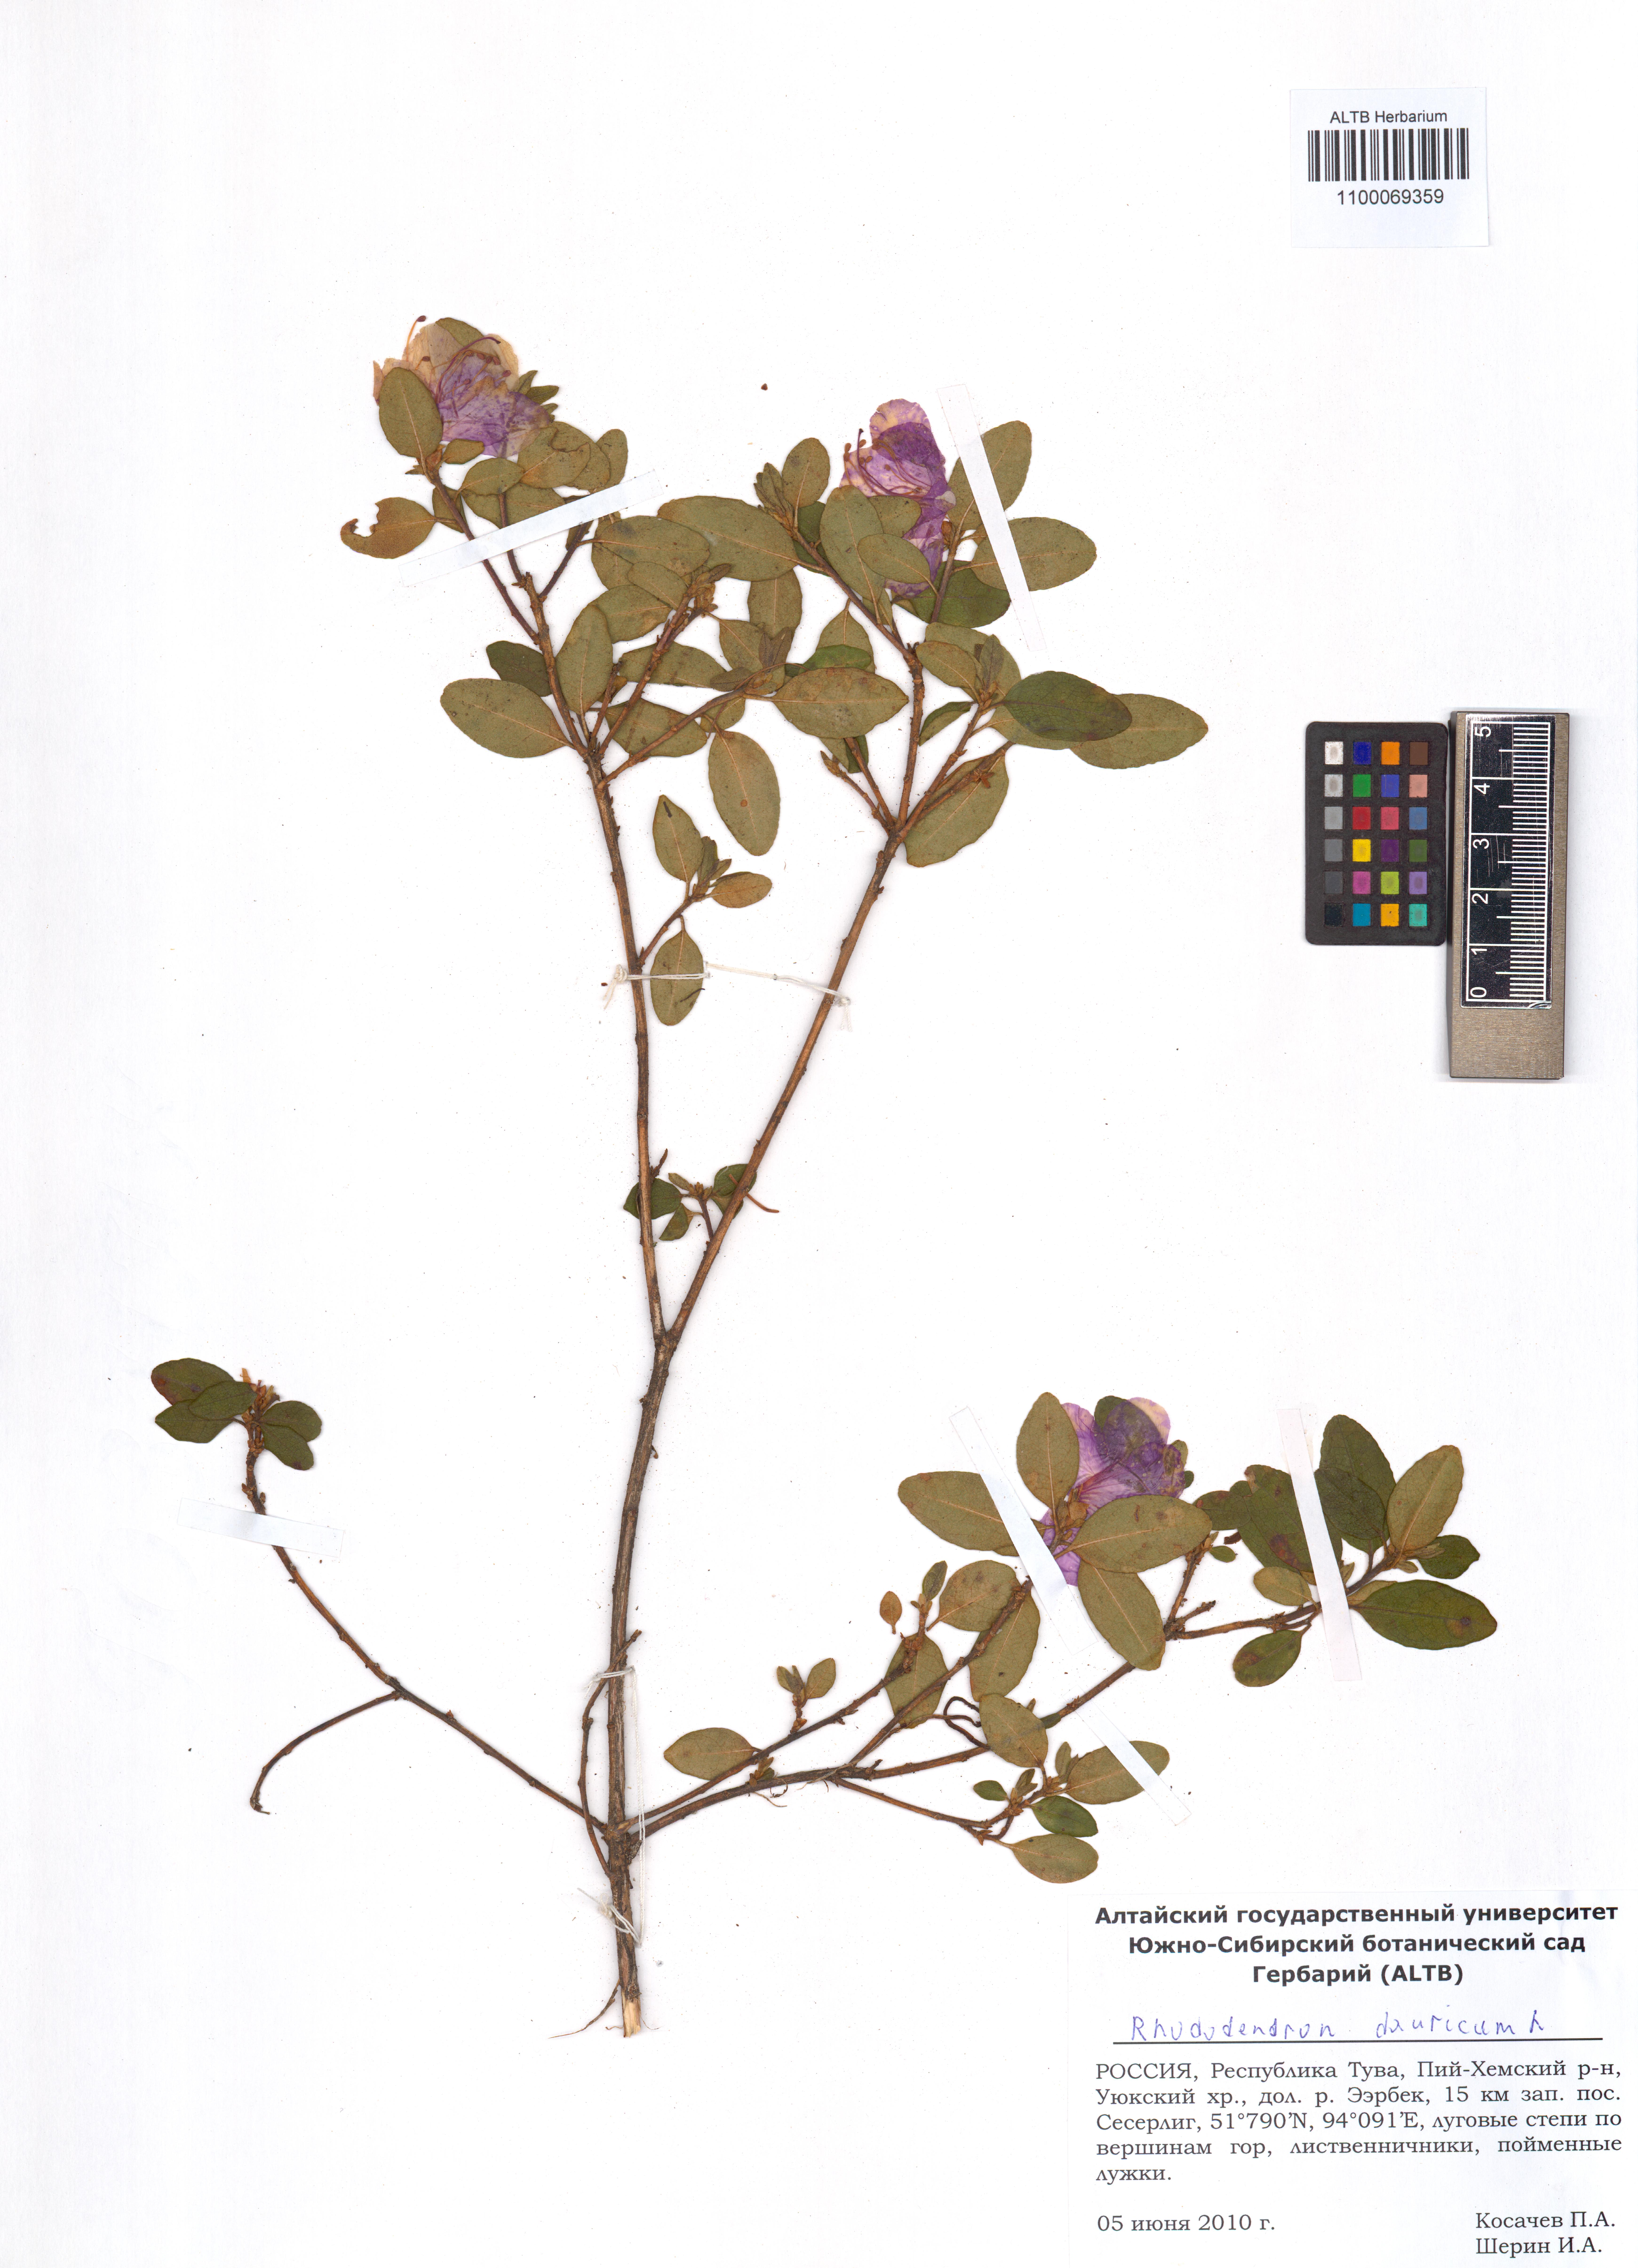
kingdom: Plantae
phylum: Tracheophyta
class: Magnoliopsida
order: Ericales
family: Ericaceae
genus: Rhododendron
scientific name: Rhododendron dauricum
